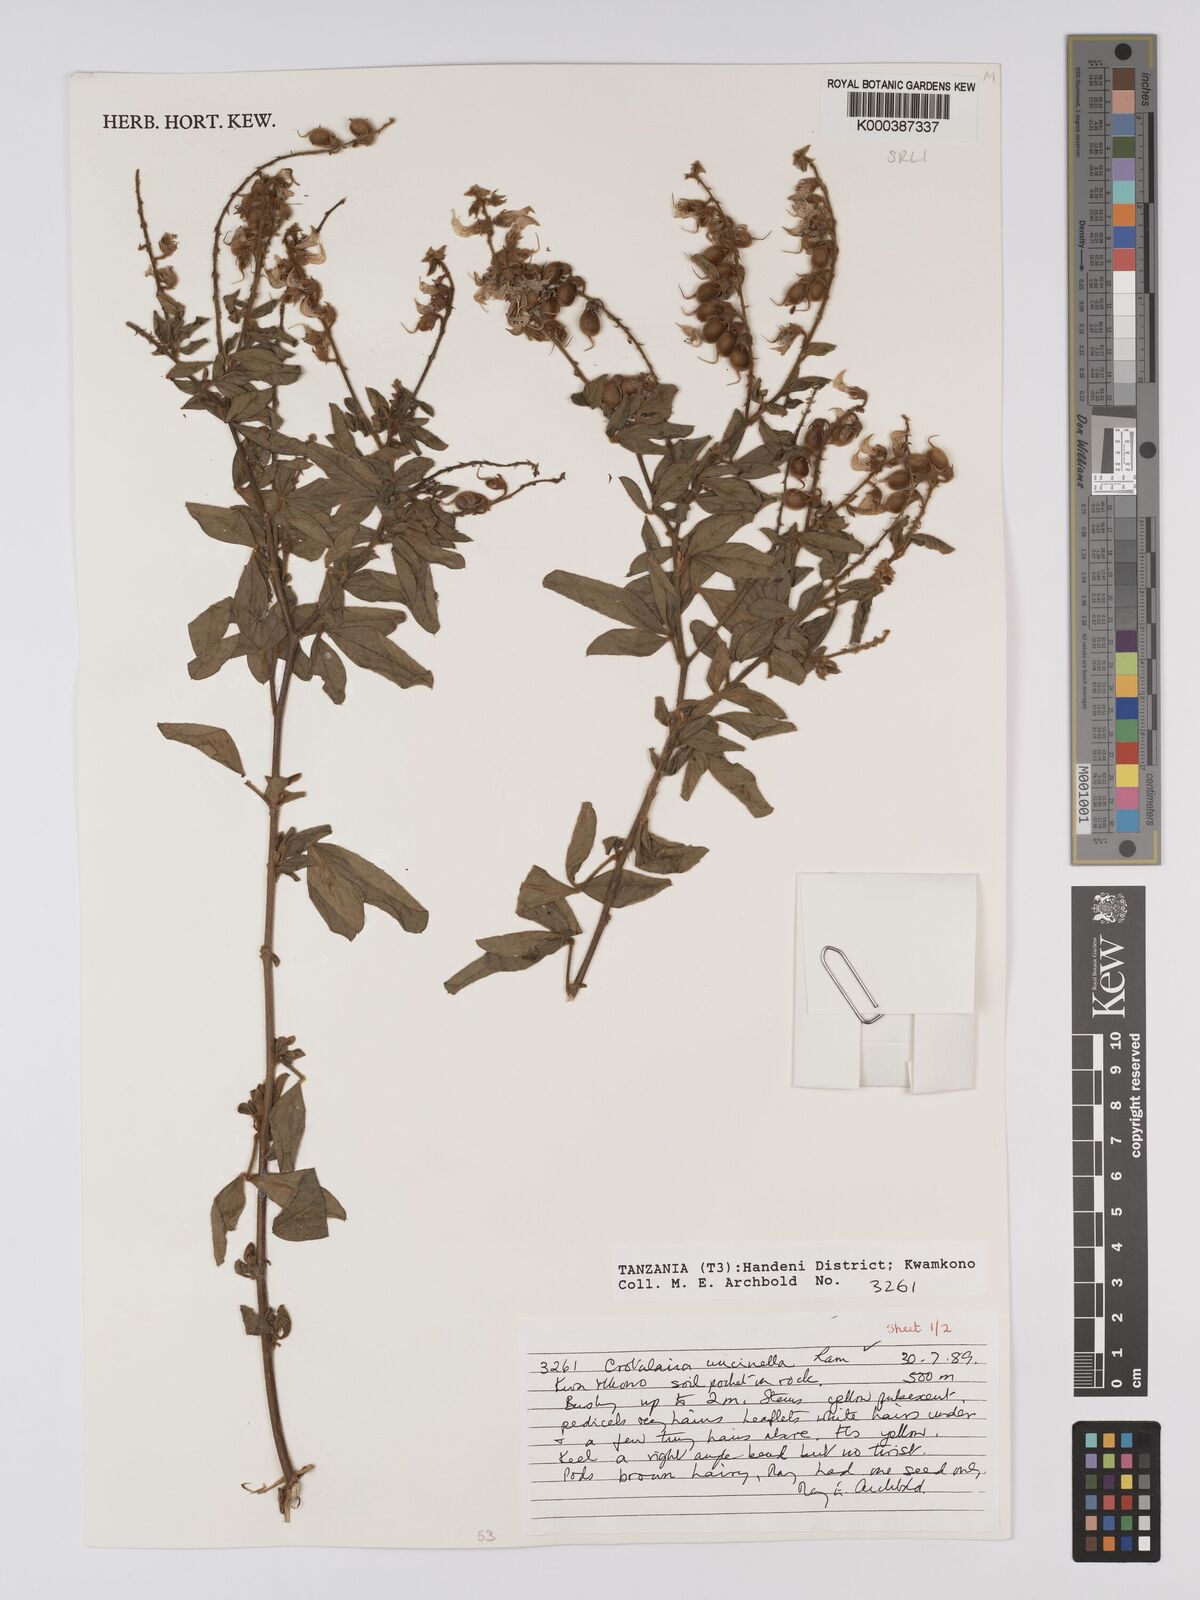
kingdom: Plantae
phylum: Tracheophyta
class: Magnoliopsida
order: Fabales
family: Fabaceae
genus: Crotalaria
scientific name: Crotalaria uncinella
